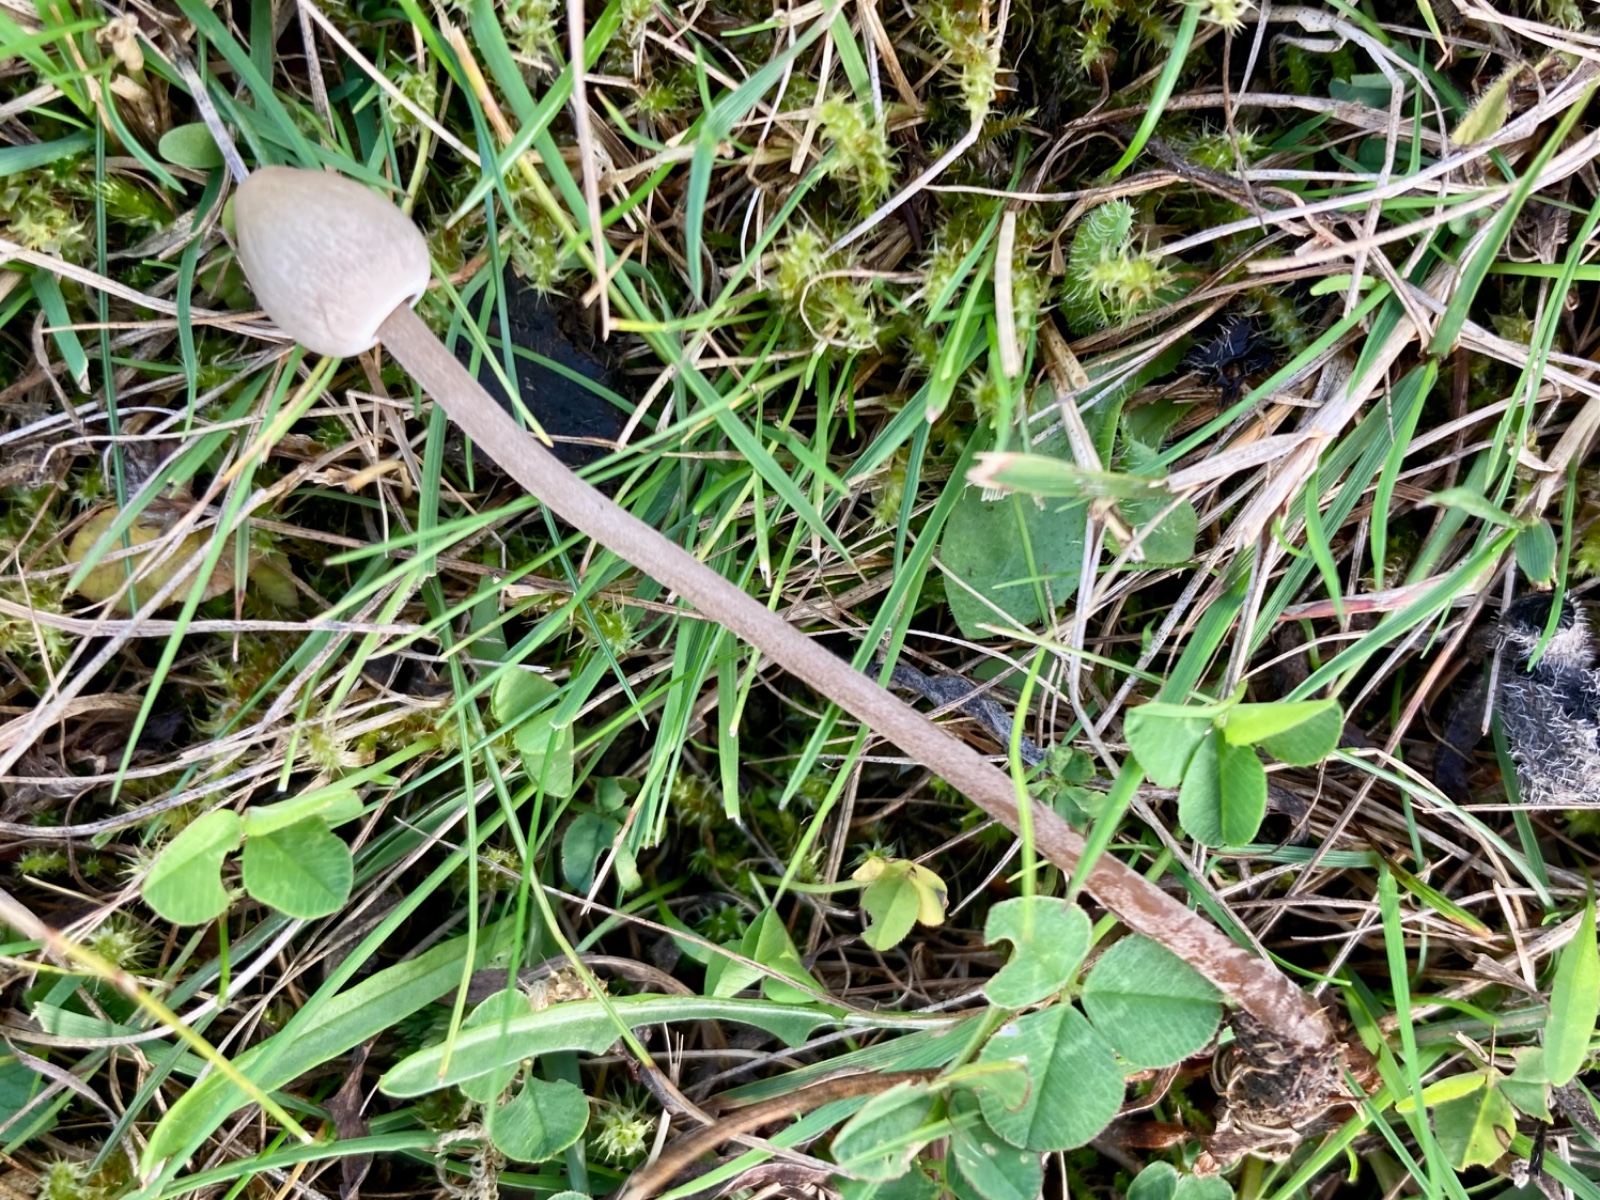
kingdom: Fungi
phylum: Basidiomycota
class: Agaricomycetes
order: Agaricales
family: Bolbitiaceae
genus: Panaeolus
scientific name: Panaeolus
